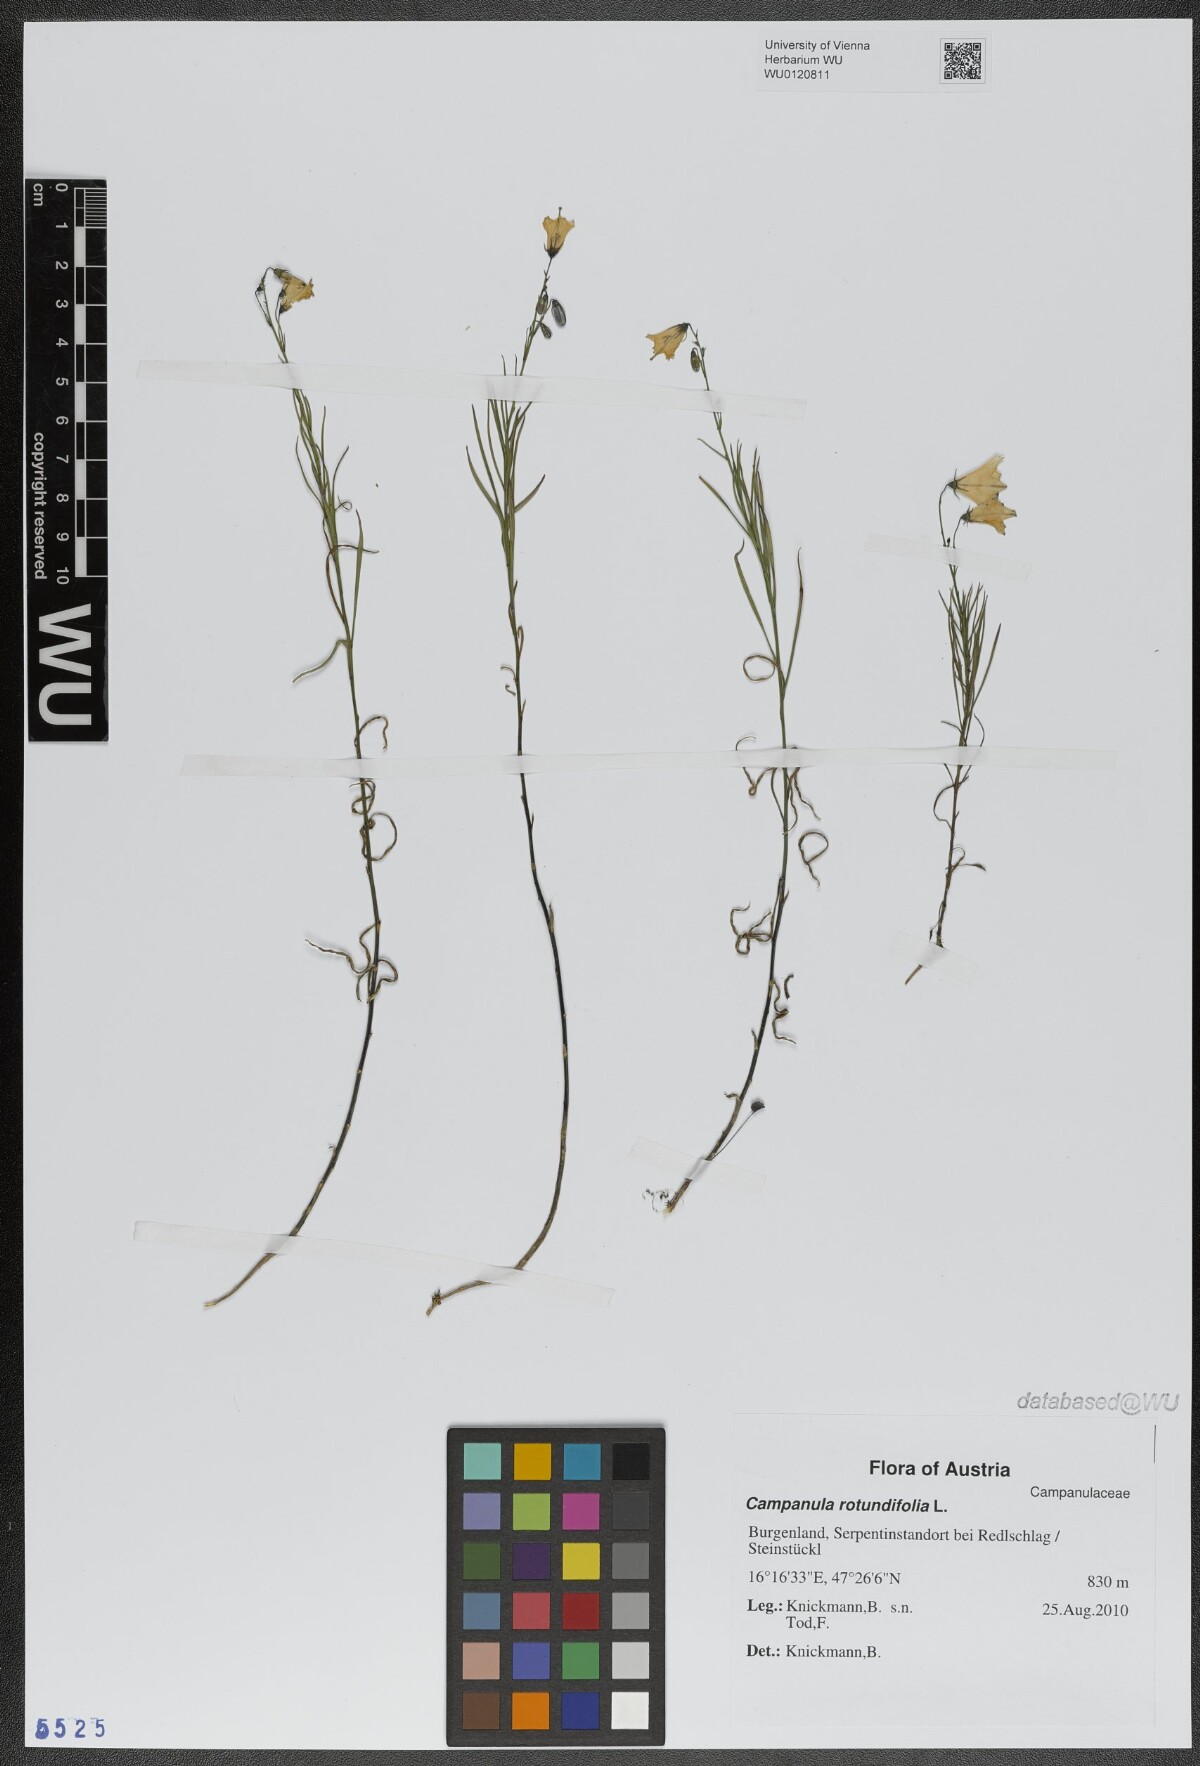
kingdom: Plantae
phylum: Tracheophyta
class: Magnoliopsida
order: Asterales
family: Campanulaceae
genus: Campanula
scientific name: Campanula rotundifolia
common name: Harebell
